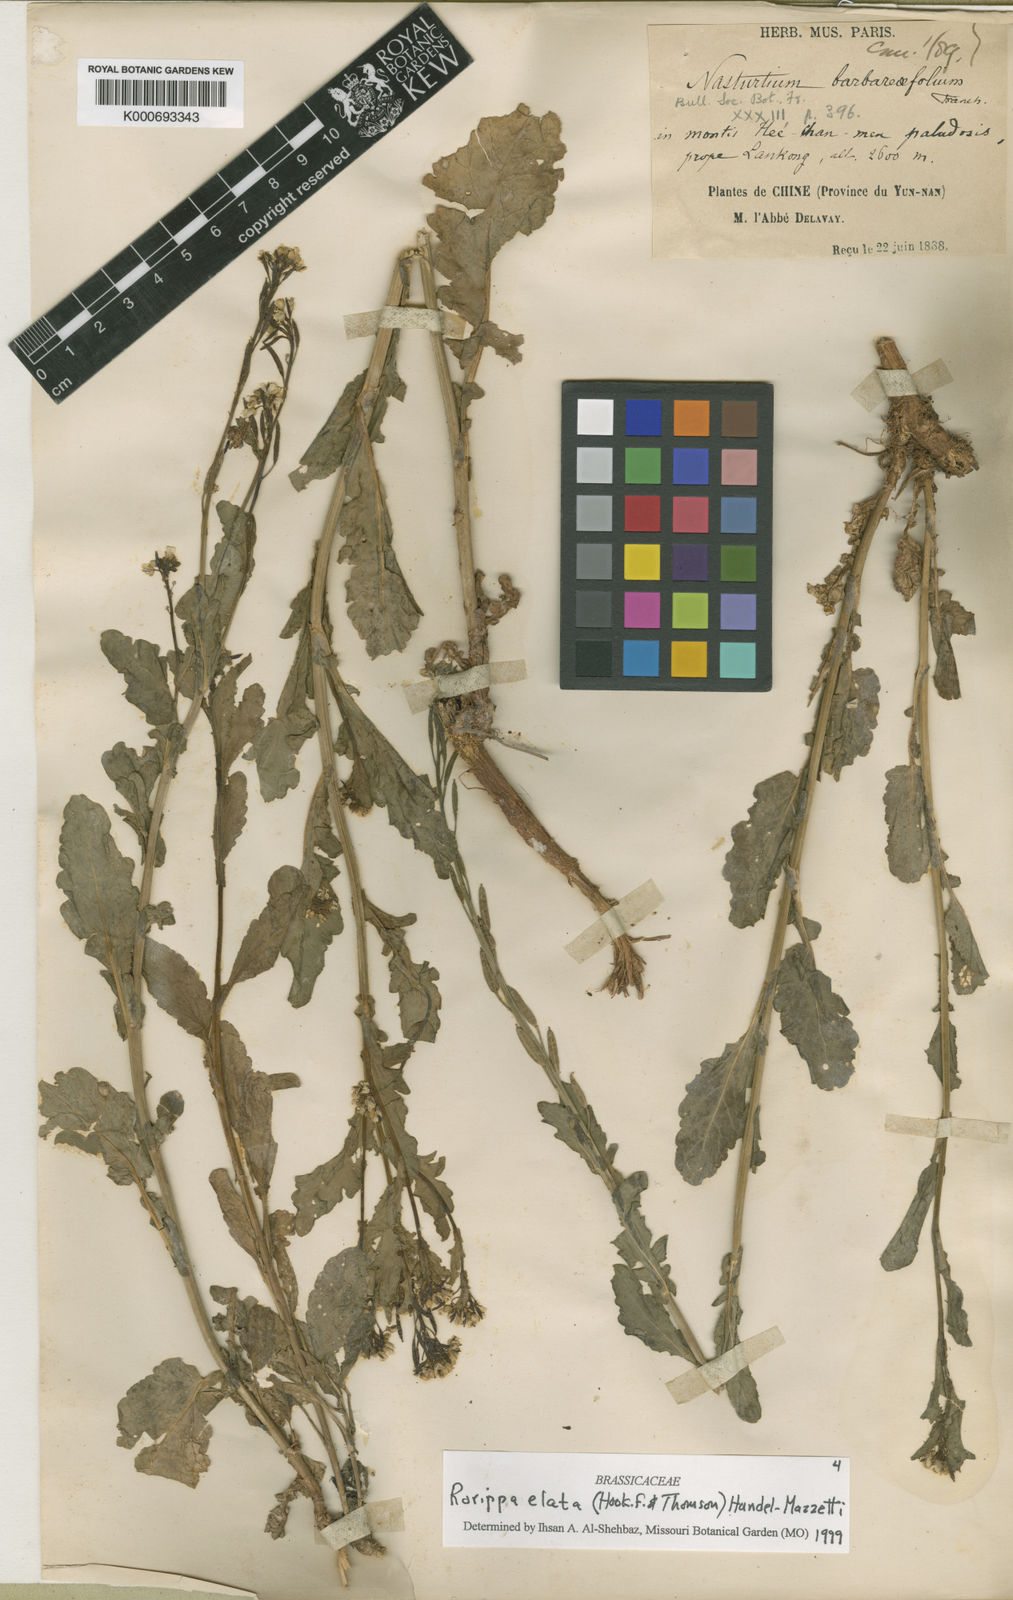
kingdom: Plantae
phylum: Tracheophyta
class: Magnoliopsida
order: Brassicales
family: Brassicaceae
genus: Rorippa
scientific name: Rorippa elata
